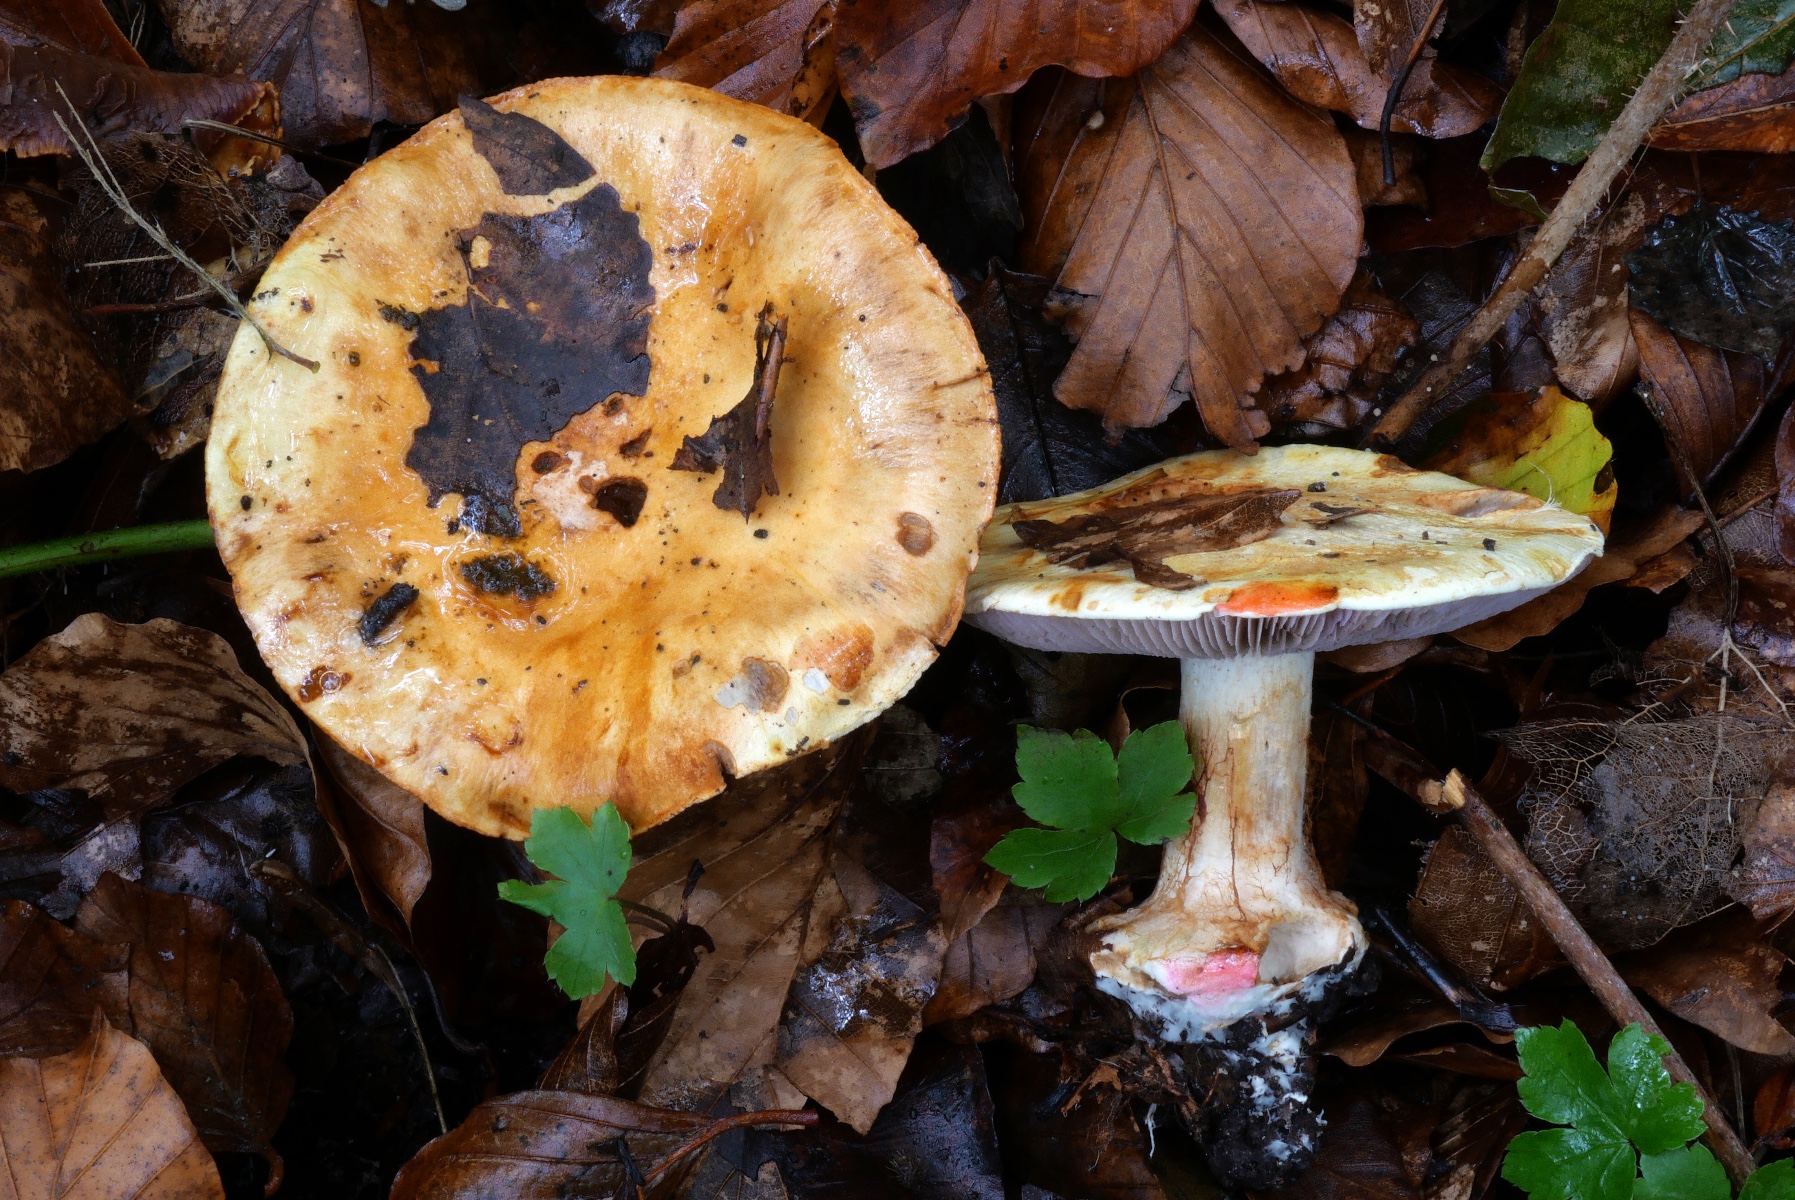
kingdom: Fungi
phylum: Basidiomycota
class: Agaricomycetes
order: Agaricales
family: Cortinariaceae
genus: Calonarius
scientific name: Calonarius catharinae
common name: Katrines slørhat
